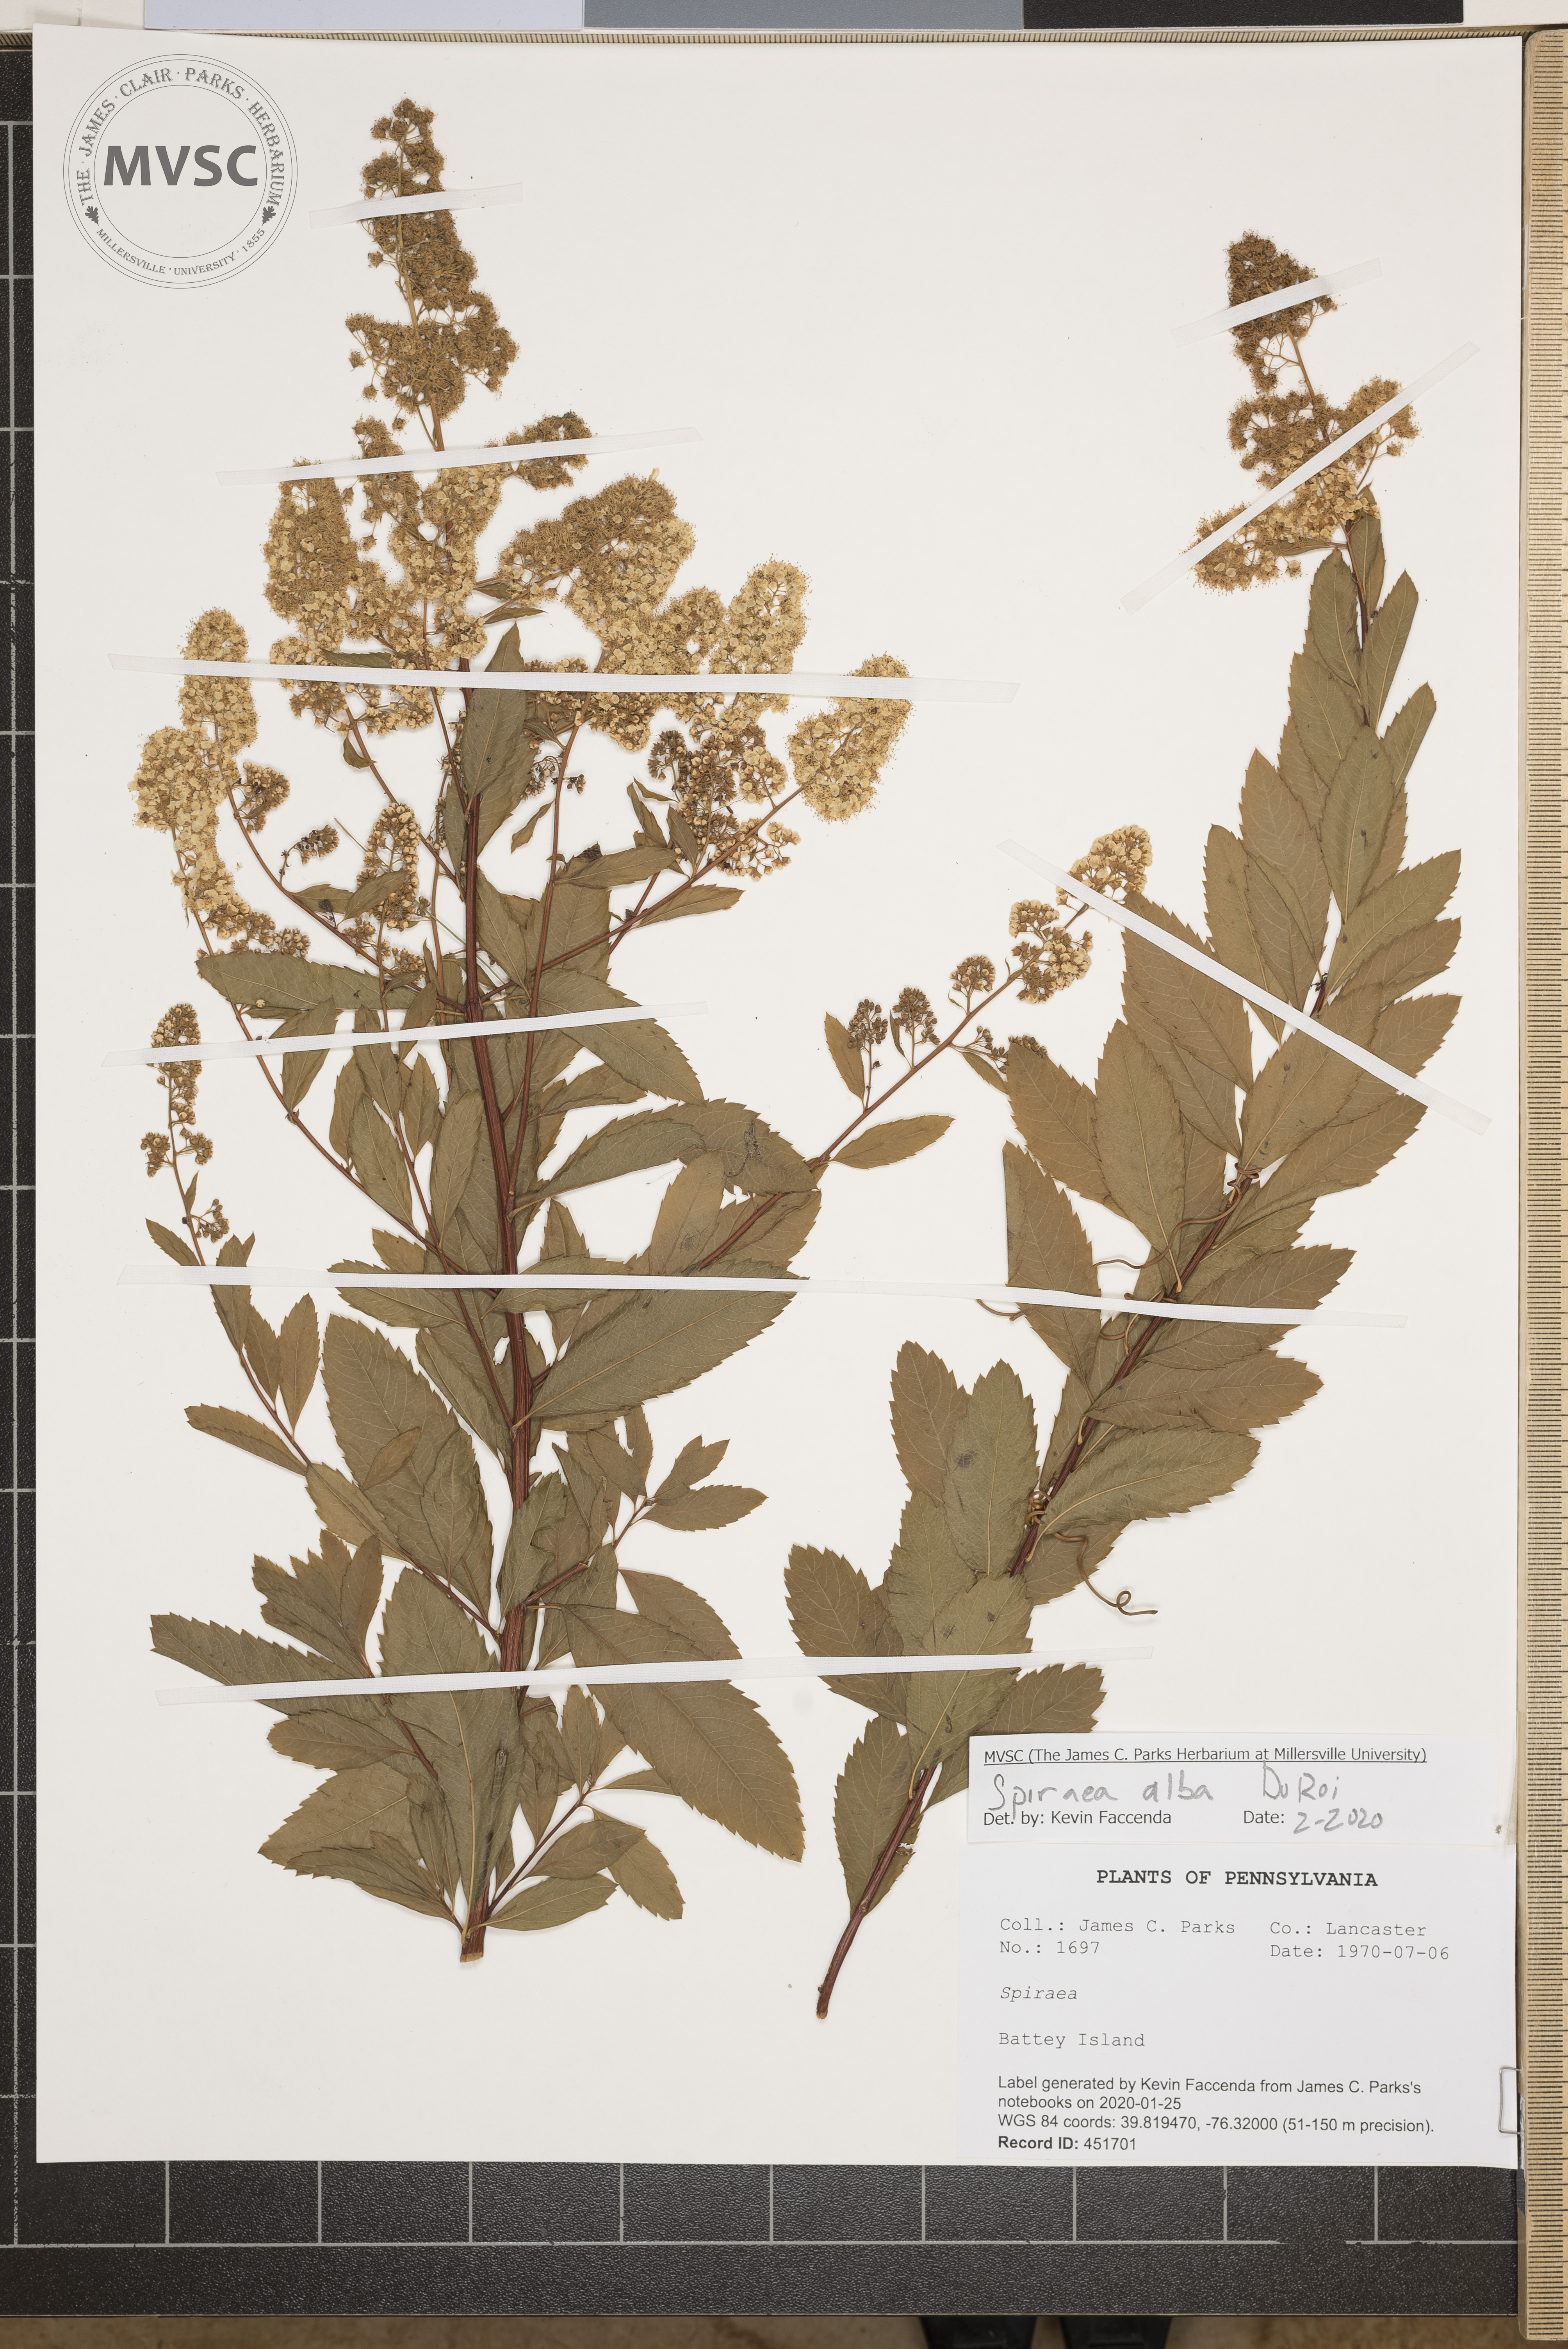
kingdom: Plantae
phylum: Tracheophyta
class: Magnoliopsida
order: Rosales
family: Rosaceae
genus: Spiraea
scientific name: Spiraea alba
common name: Pale bridewort
